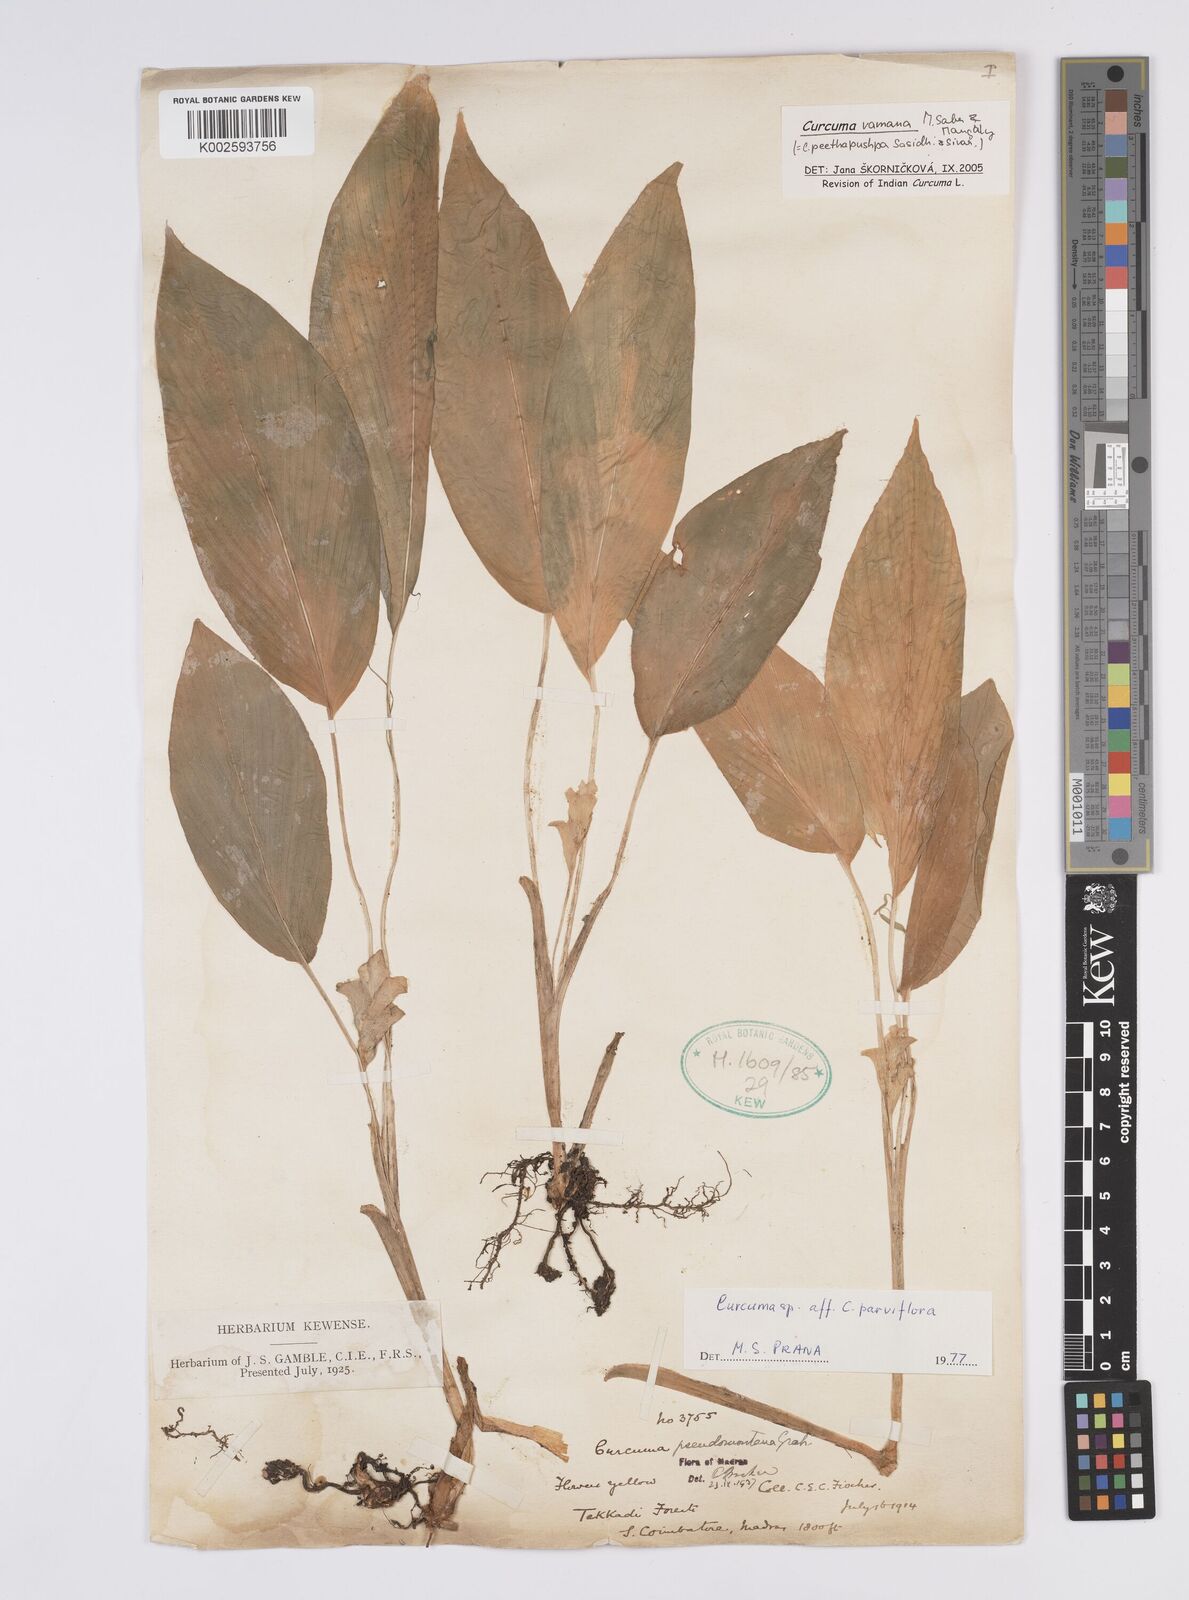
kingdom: Plantae
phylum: Tracheophyta
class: Liliopsida
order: Zingiberales
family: Zingiberaceae
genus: Curcuma
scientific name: Curcuma vamana
